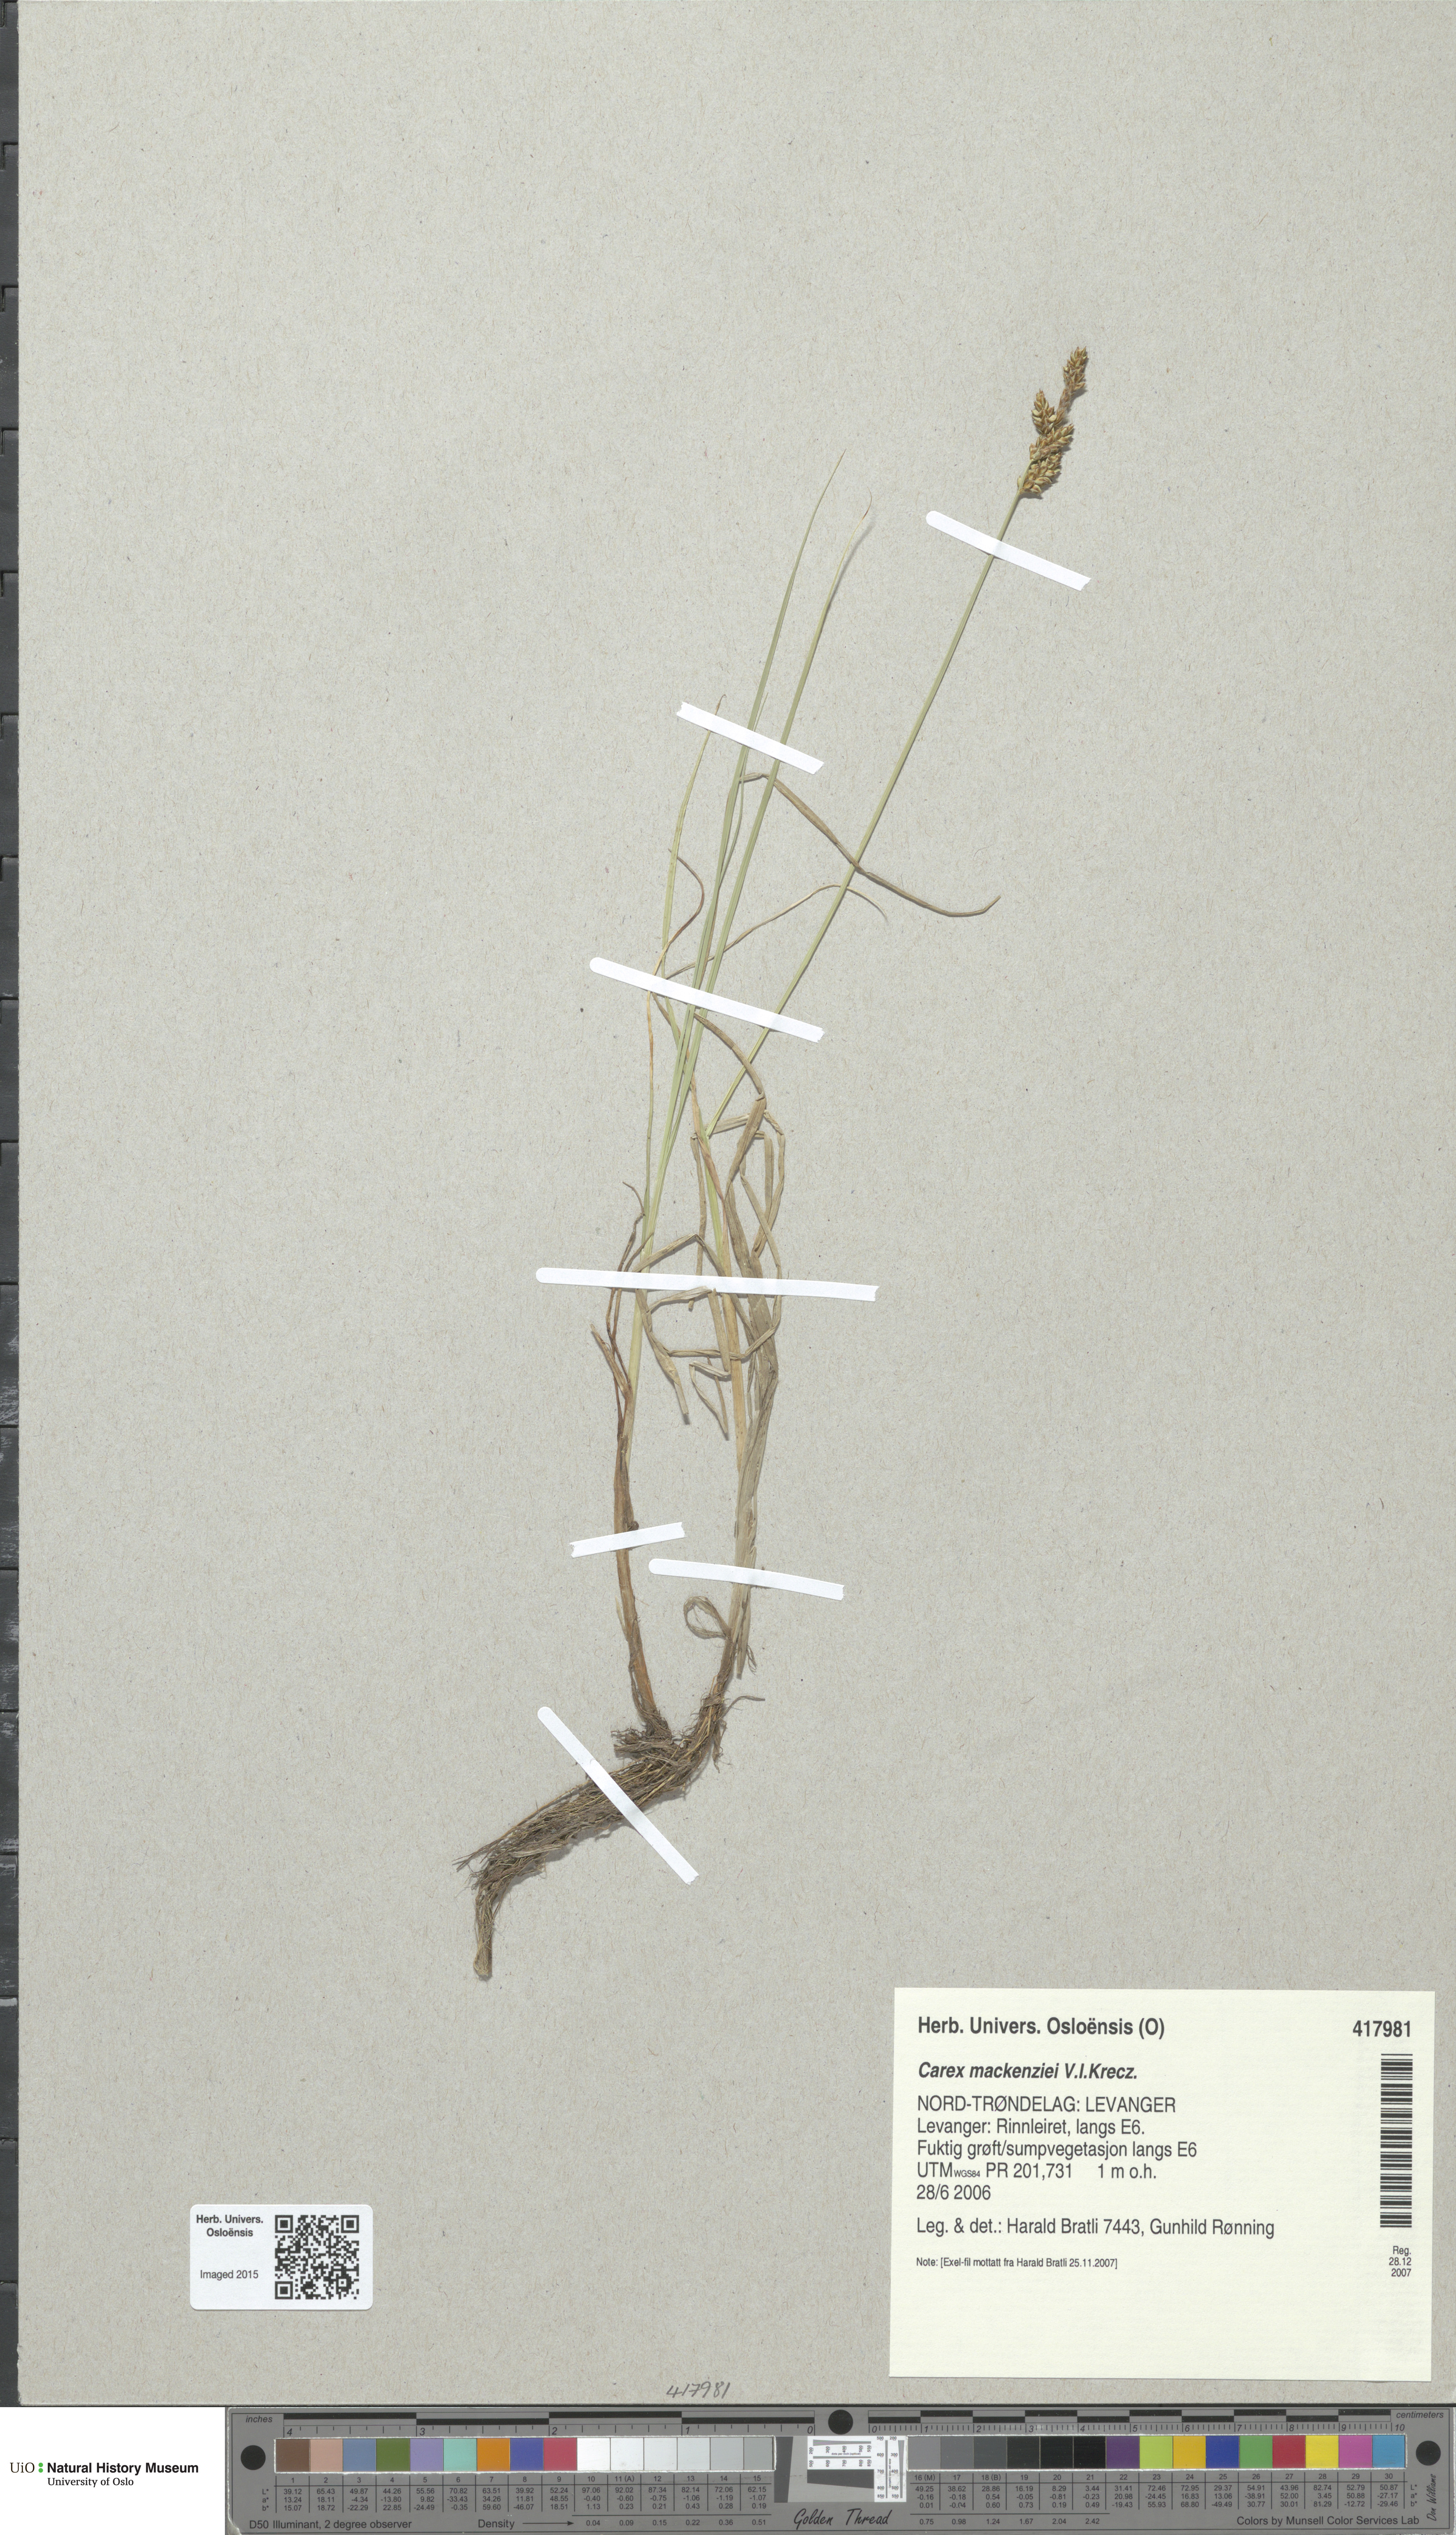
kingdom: Plantae
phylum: Tracheophyta
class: Liliopsida
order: Poales
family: Cyperaceae
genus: Carex
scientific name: Carex mackenziei
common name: Mackenzie's sedge
